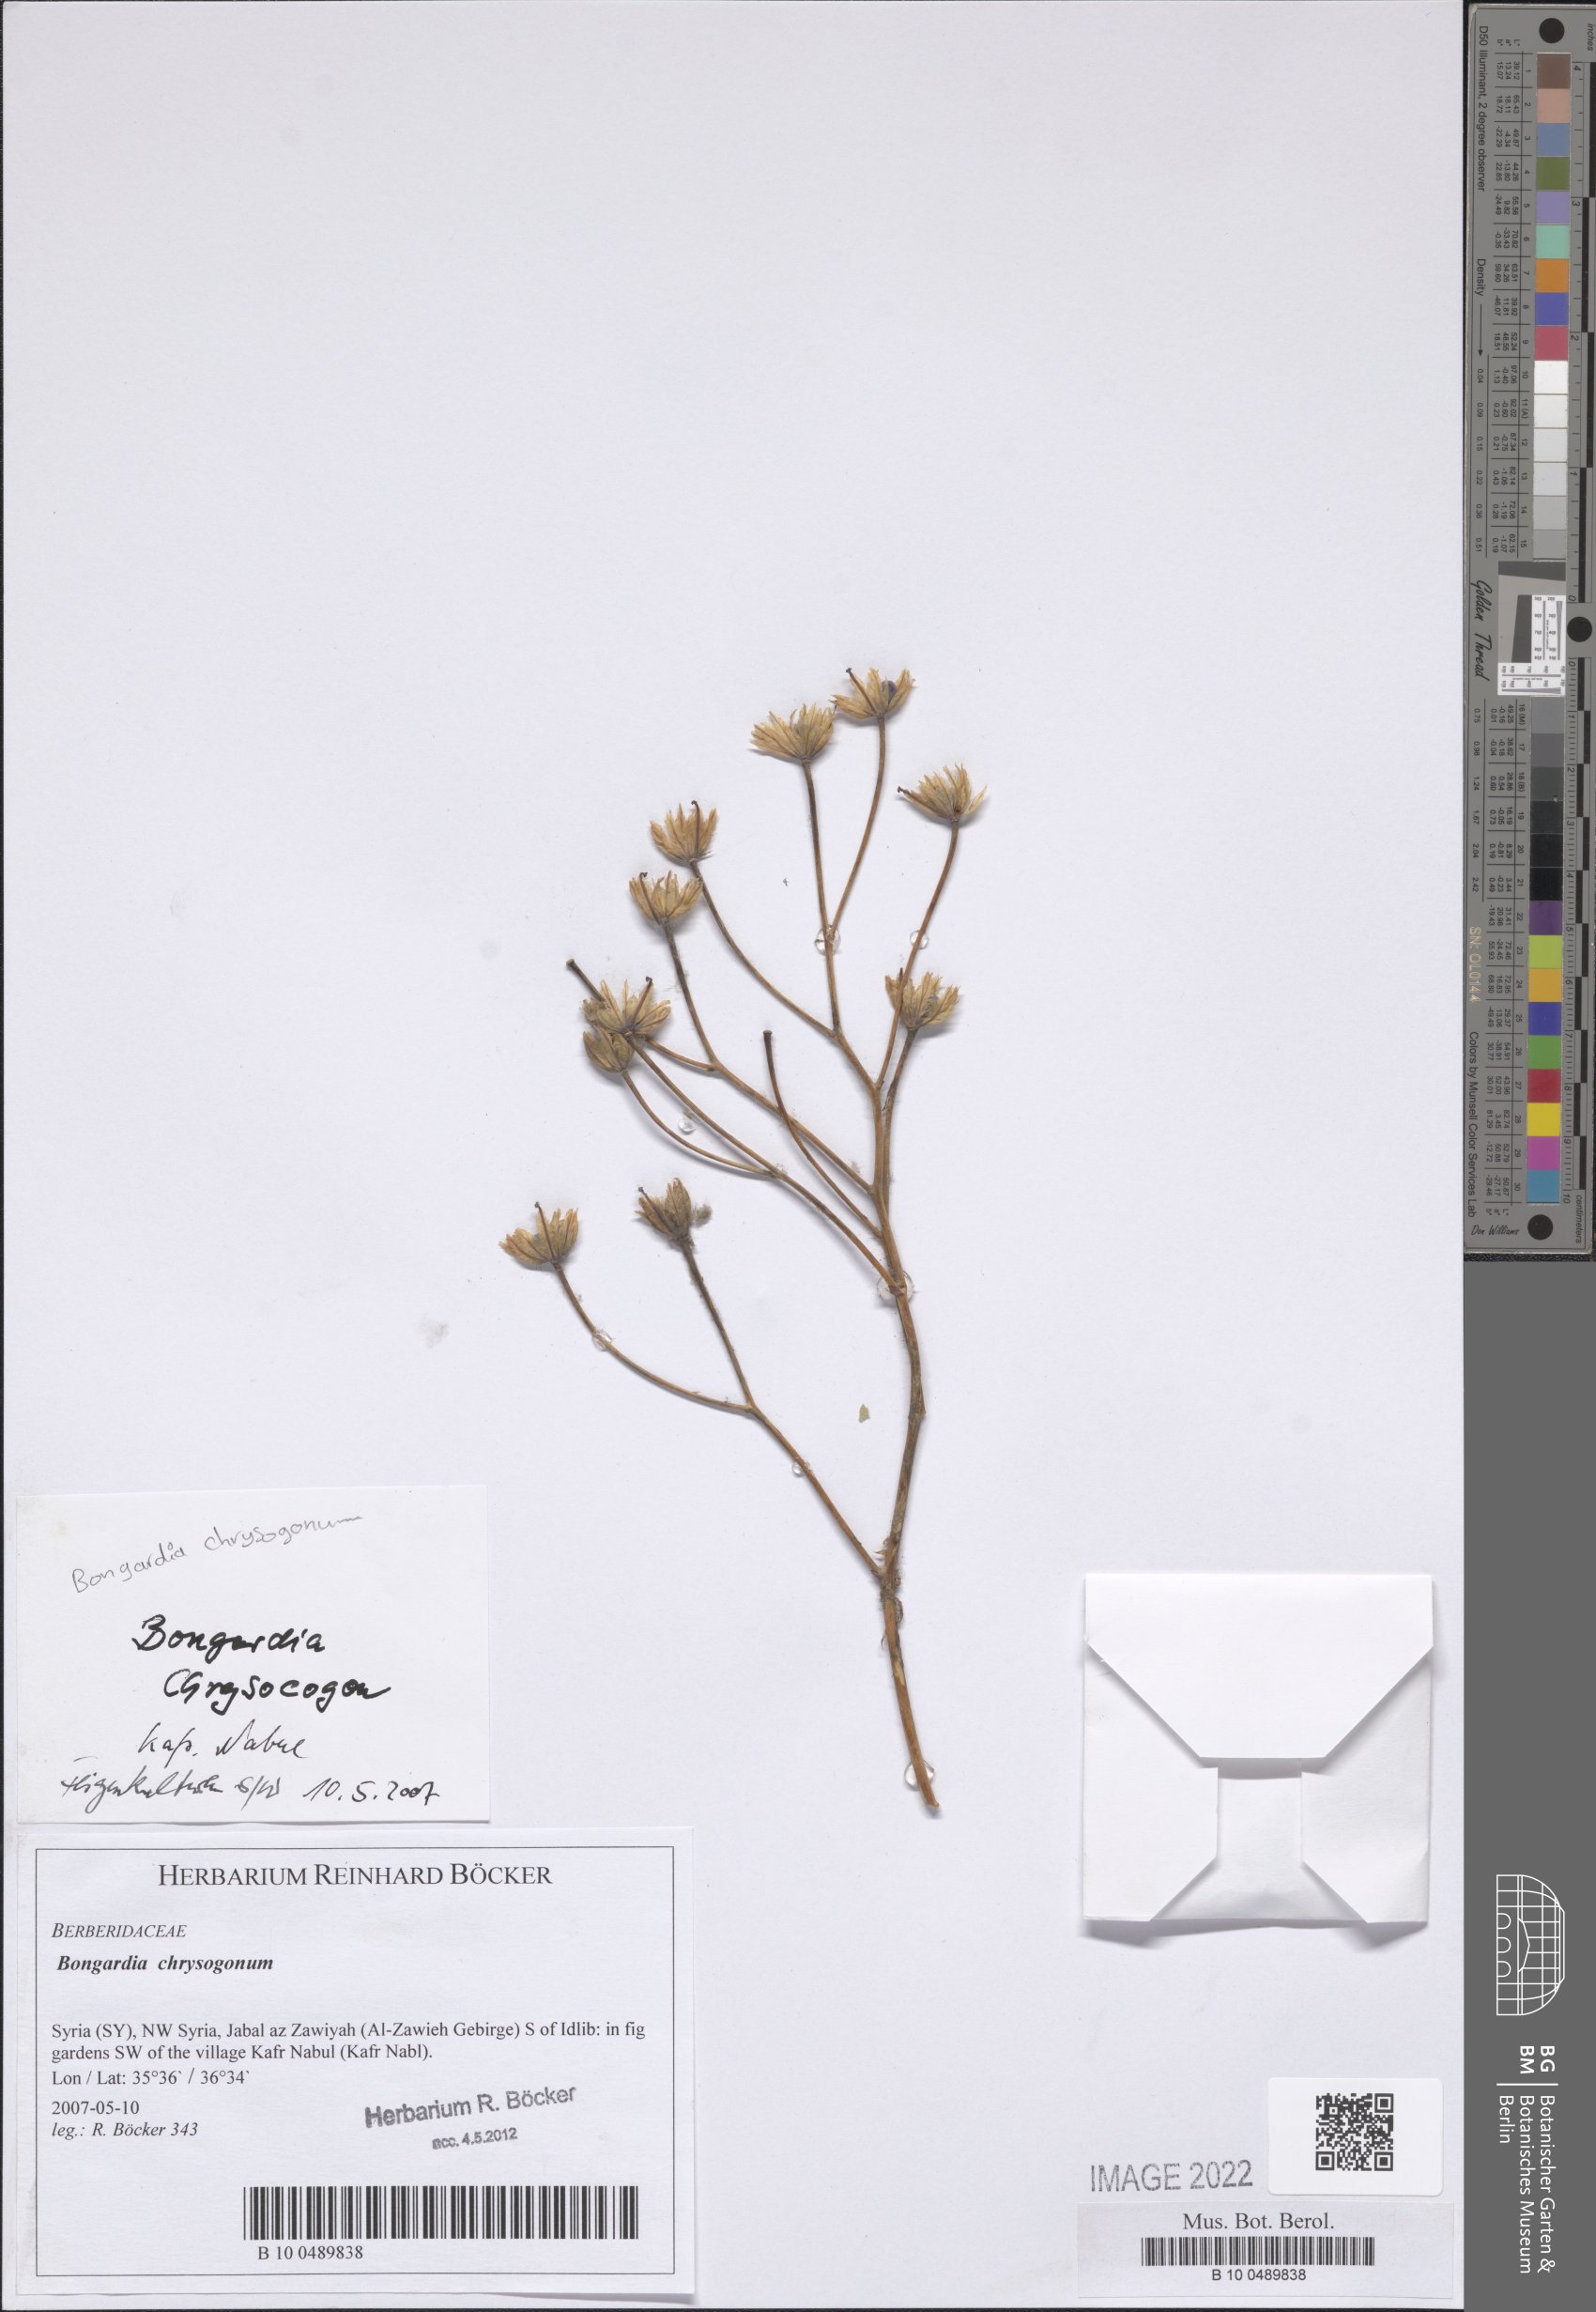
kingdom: Plantae
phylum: Tracheophyta
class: Magnoliopsida
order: Ranunculales
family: Berberidaceae
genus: Bongardia
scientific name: Bongardia chrysogonum
